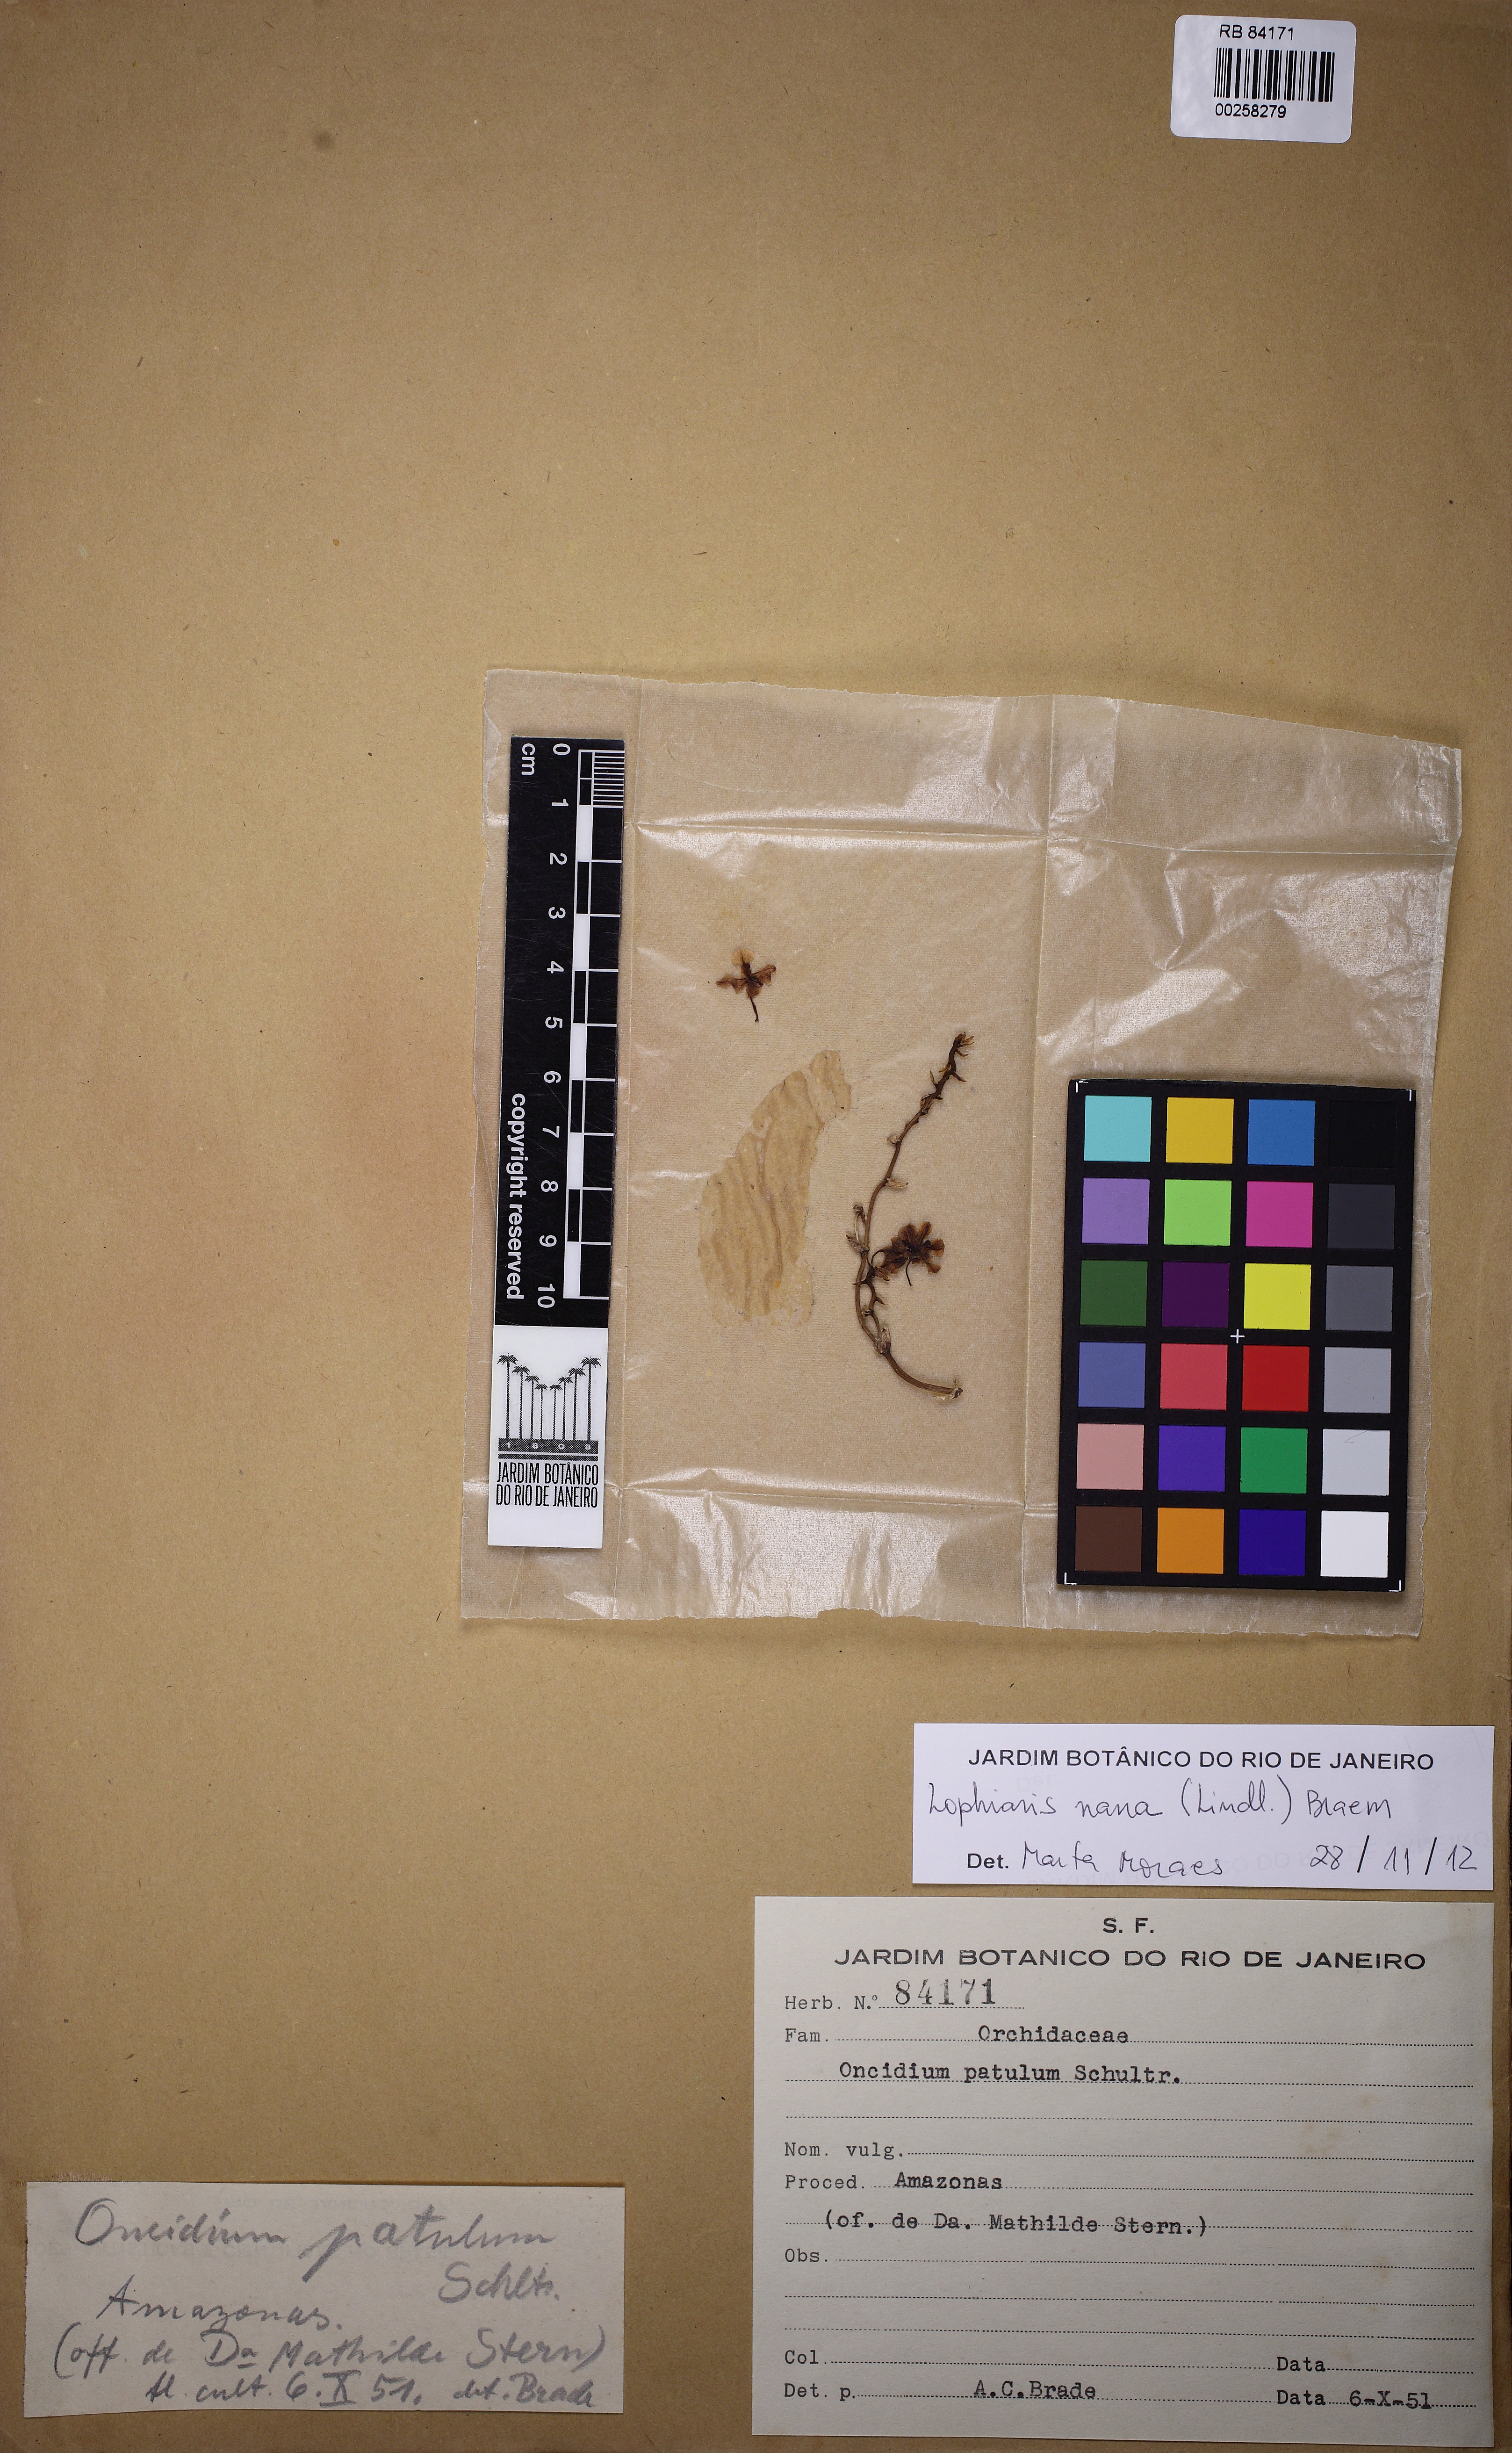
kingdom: Plantae
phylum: Tracheophyta
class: Liliopsida
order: Asparagales
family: Orchidaceae
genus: Trichocentrum
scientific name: Trichocentrum nanum
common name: Mule-ear orchid
